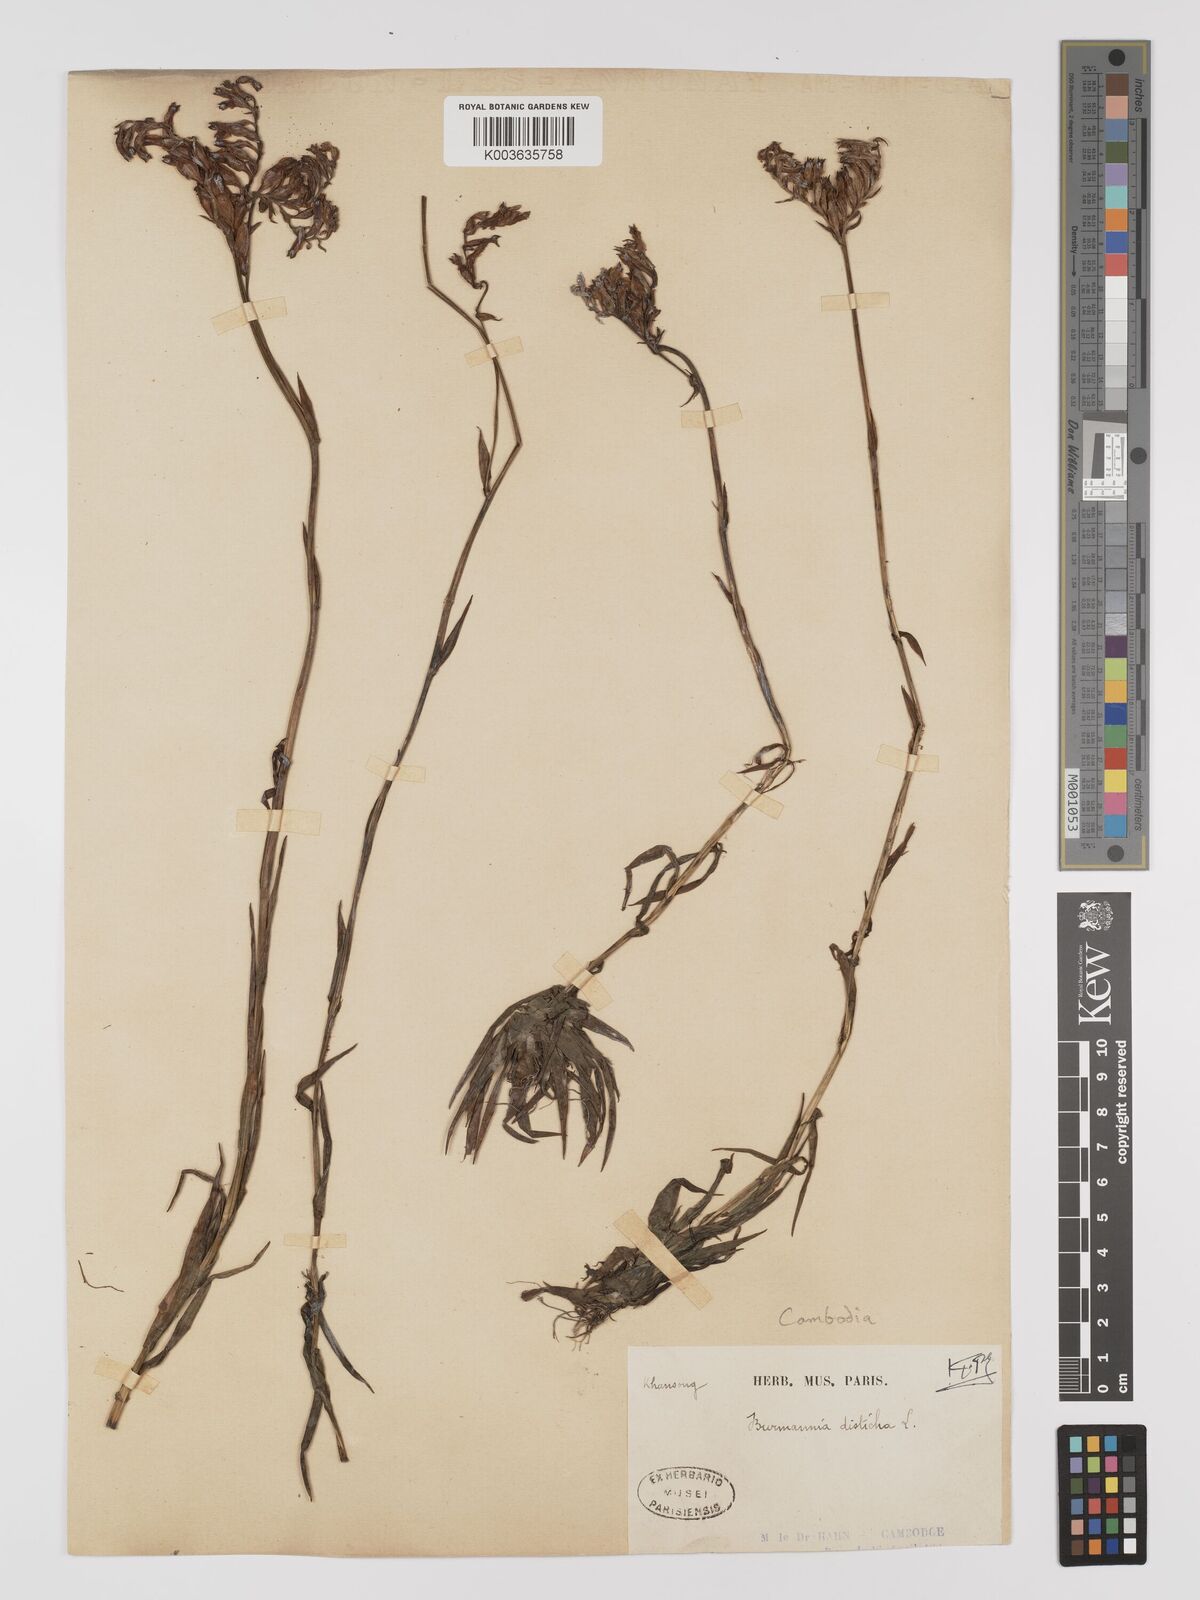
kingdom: Plantae
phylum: Tracheophyta
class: Liliopsida
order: Dioscoreales
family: Burmanniaceae
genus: Burmannia
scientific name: Burmannia disticha
